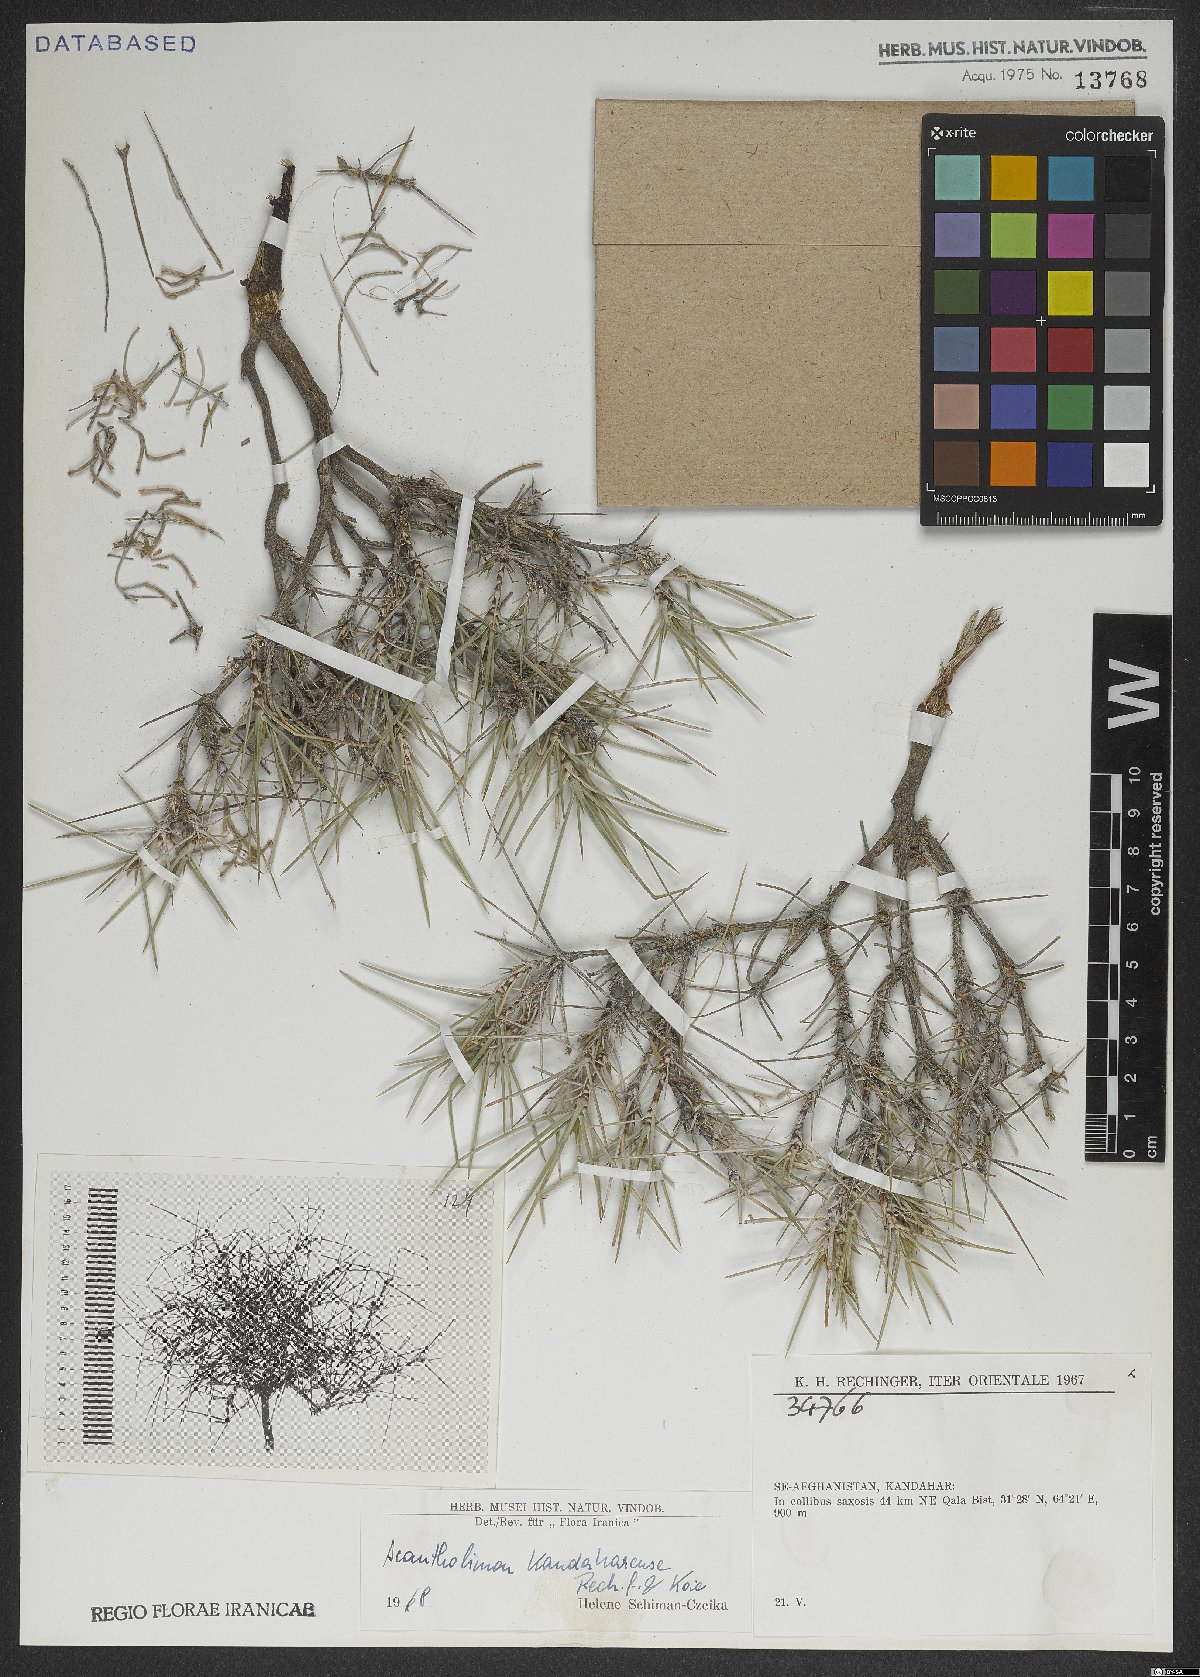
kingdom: Plantae
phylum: Tracheophyta
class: Magnoliopsida
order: Caryophyllales
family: Plumbaginaceae
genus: Acantholimon
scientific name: Acantholimon kandaharense
